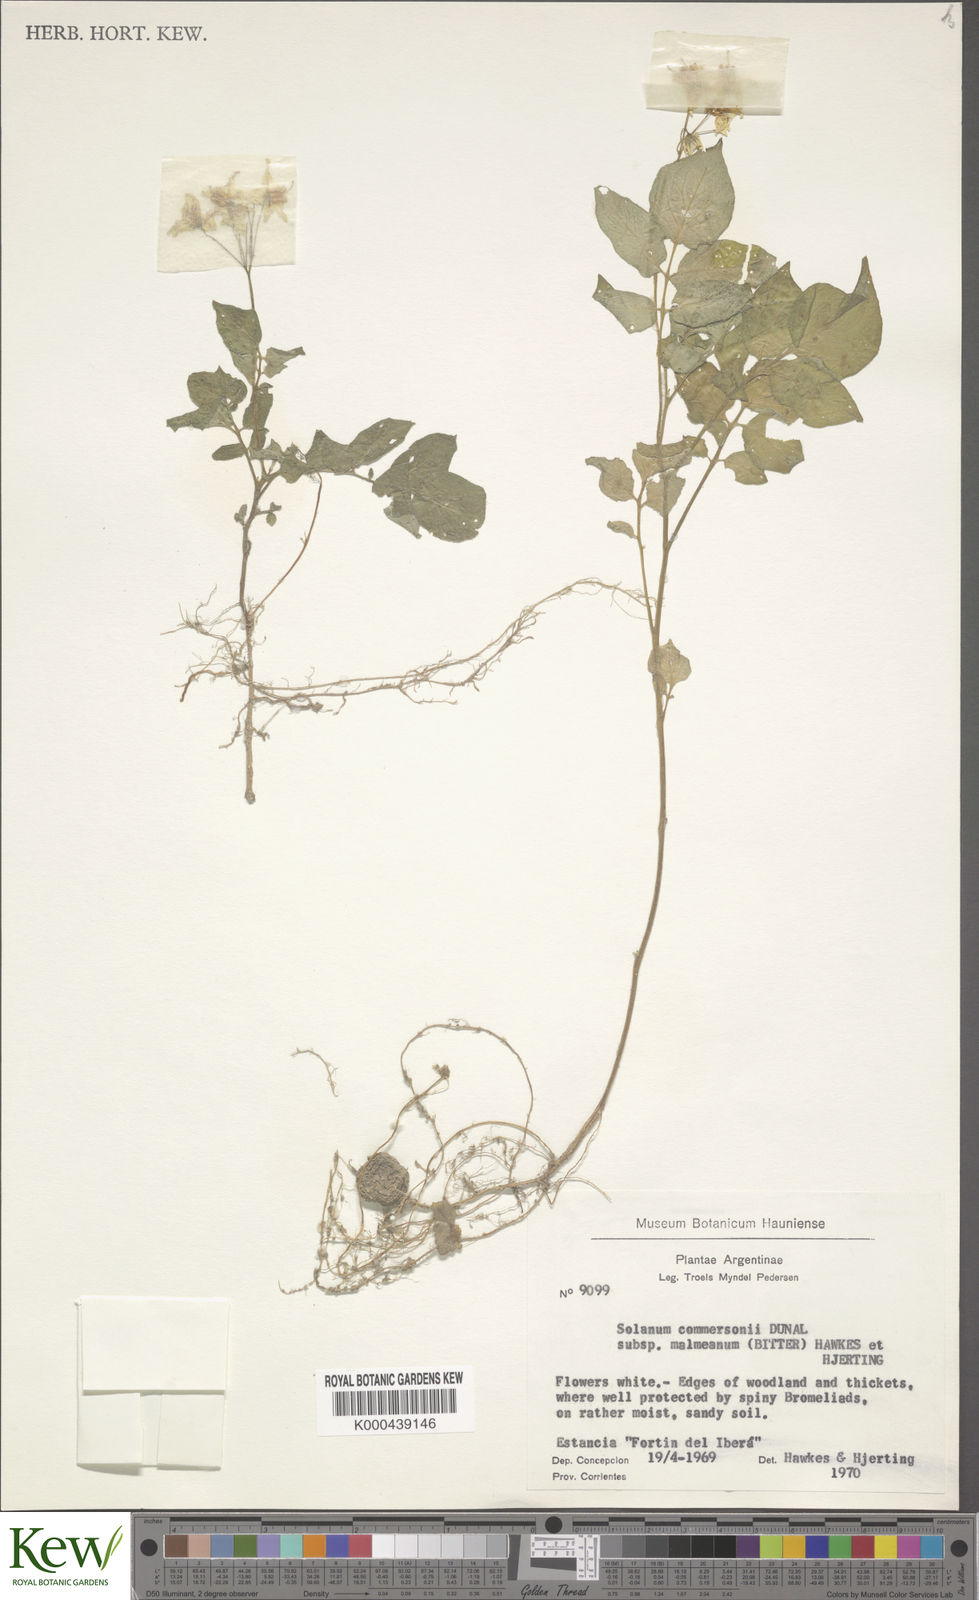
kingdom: Plantae
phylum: Tracheophyta
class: Magnoliopsida
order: Solanales
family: Solanaceae
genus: Solanum
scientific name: Solanum commersonii
